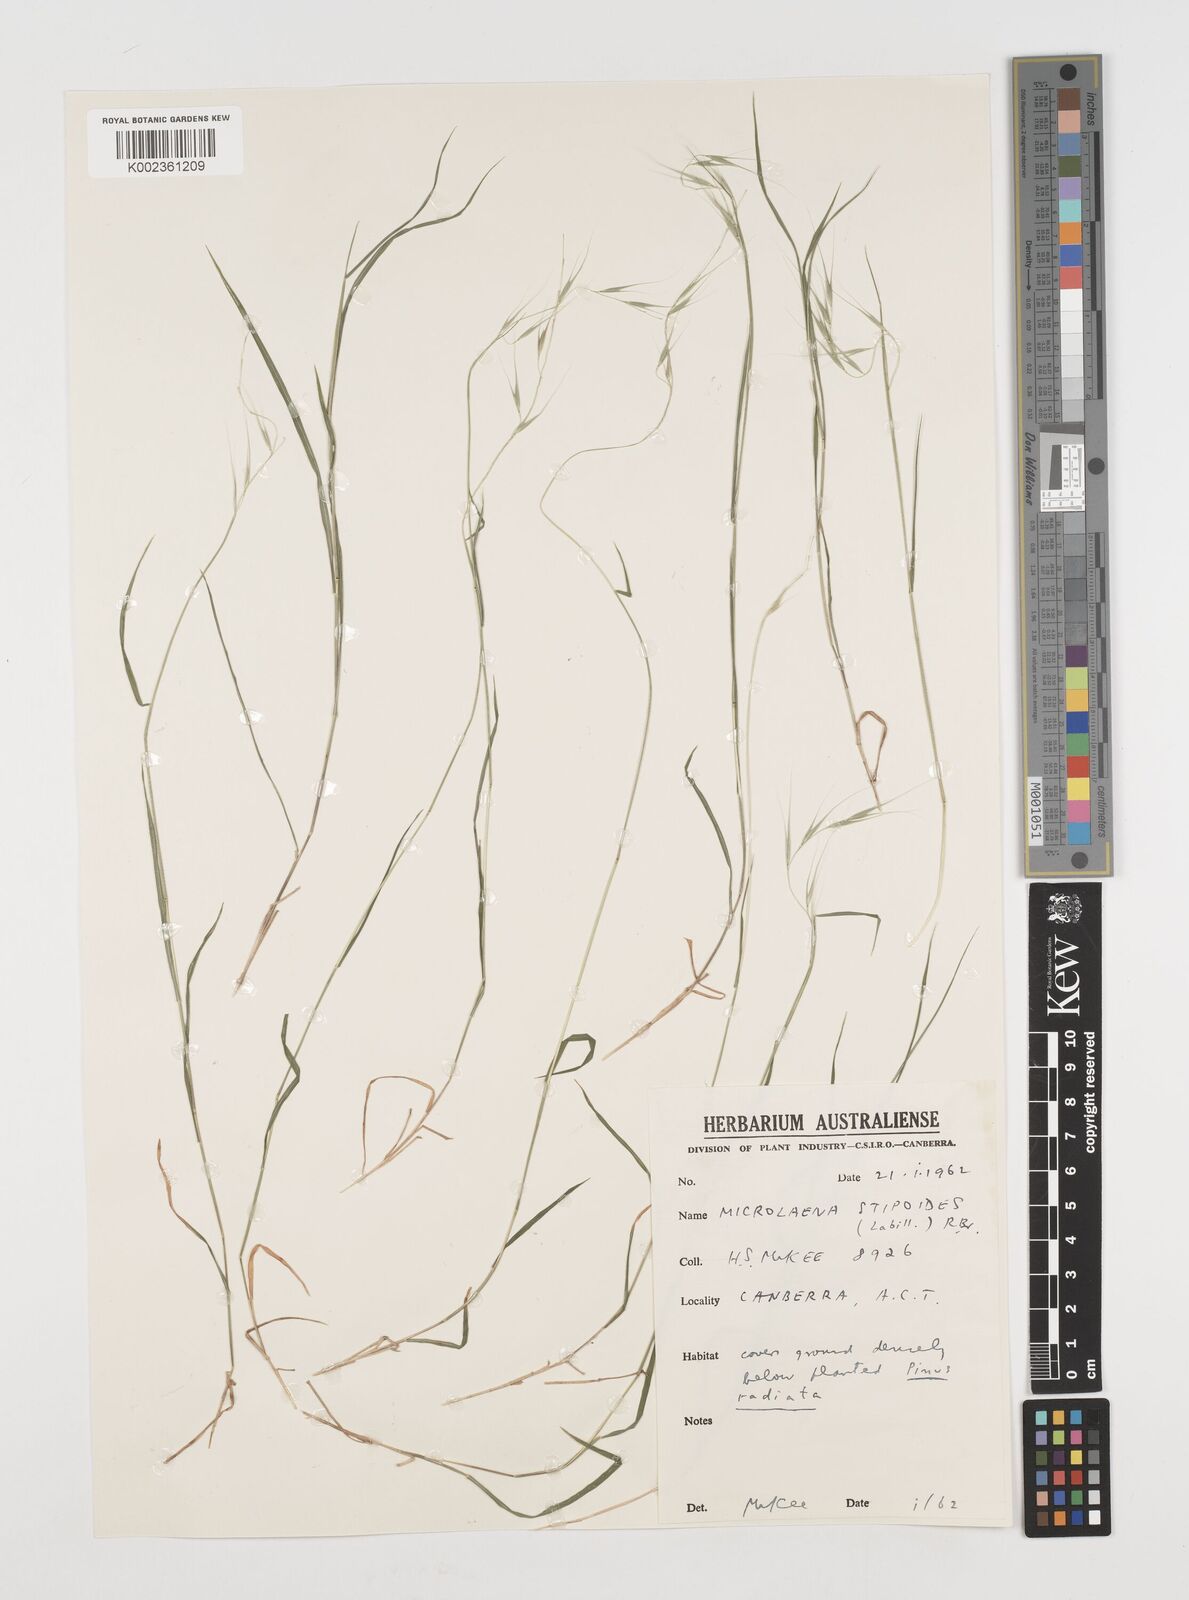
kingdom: Plantae
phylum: Tracheophyta
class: Liliopsida
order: Poales
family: Poaceae
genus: Microlaena
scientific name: Microlaena stipoides
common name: Meadow ricegrass
